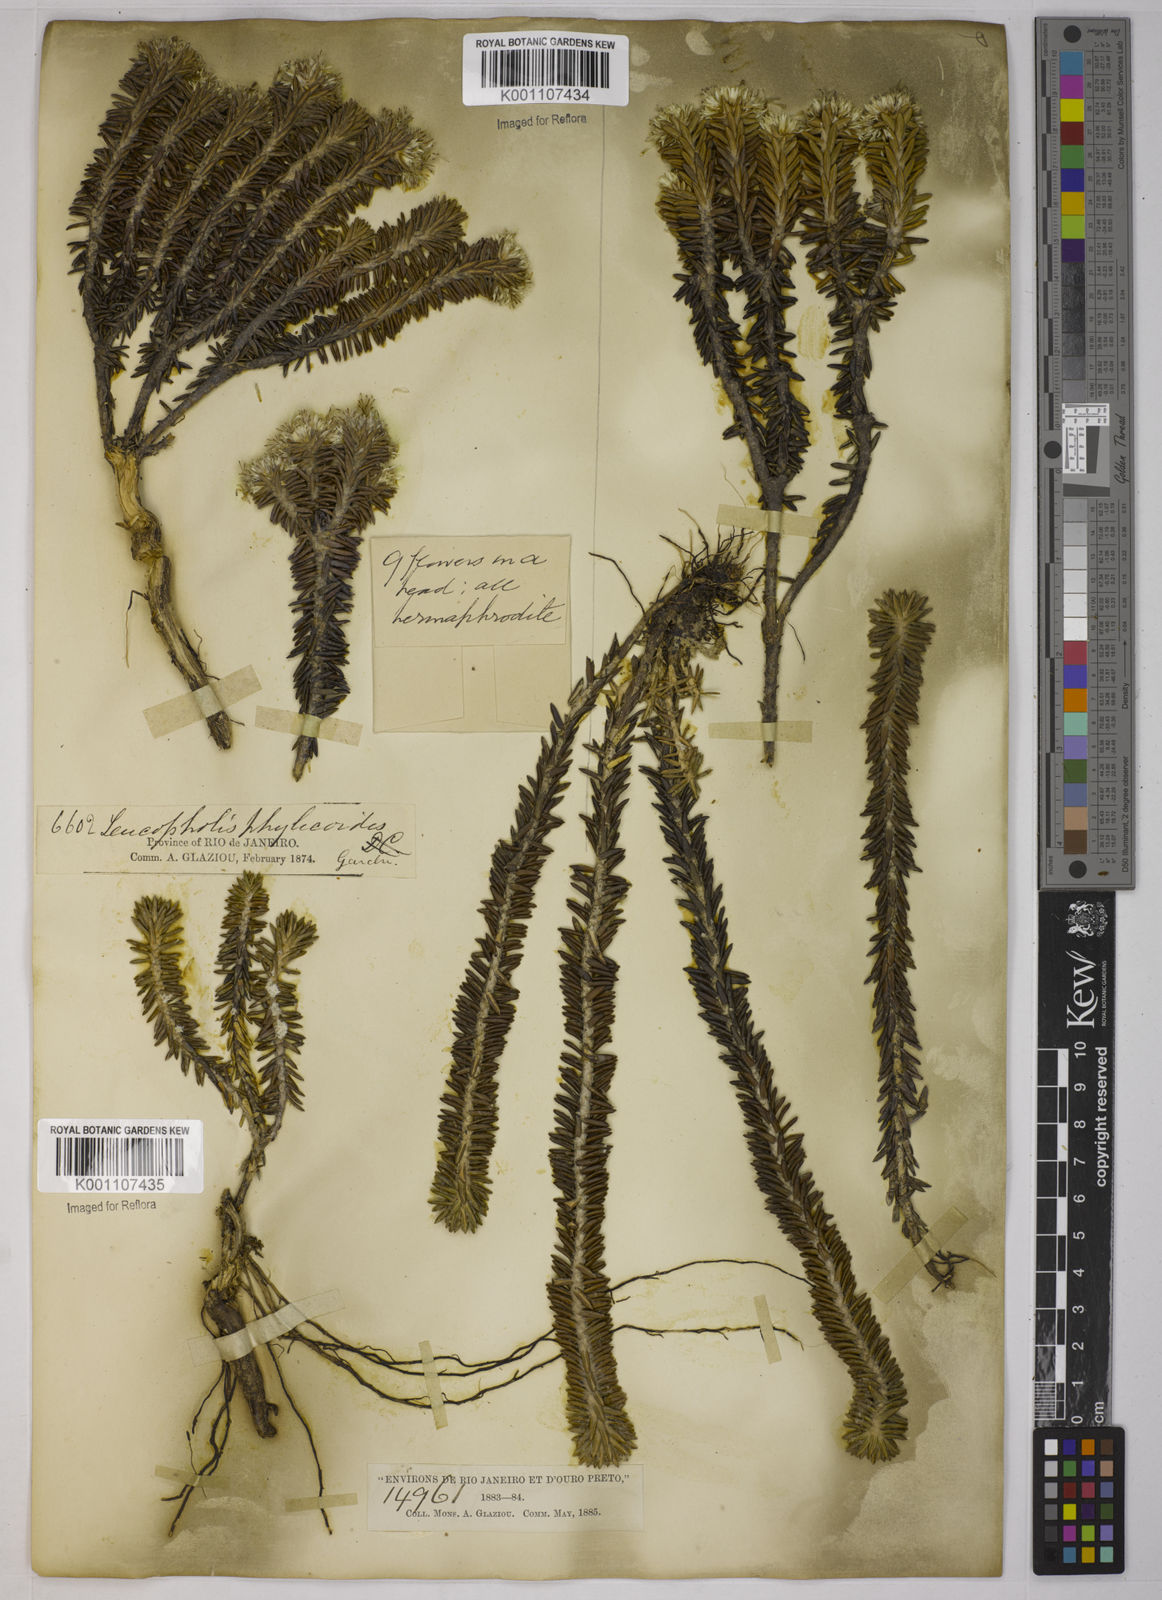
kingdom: Plantae
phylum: Tracheophyta
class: Magnoliopsida
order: Asterales
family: Asteraceae
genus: Chionolaena
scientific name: Chionolaena phylicoides
